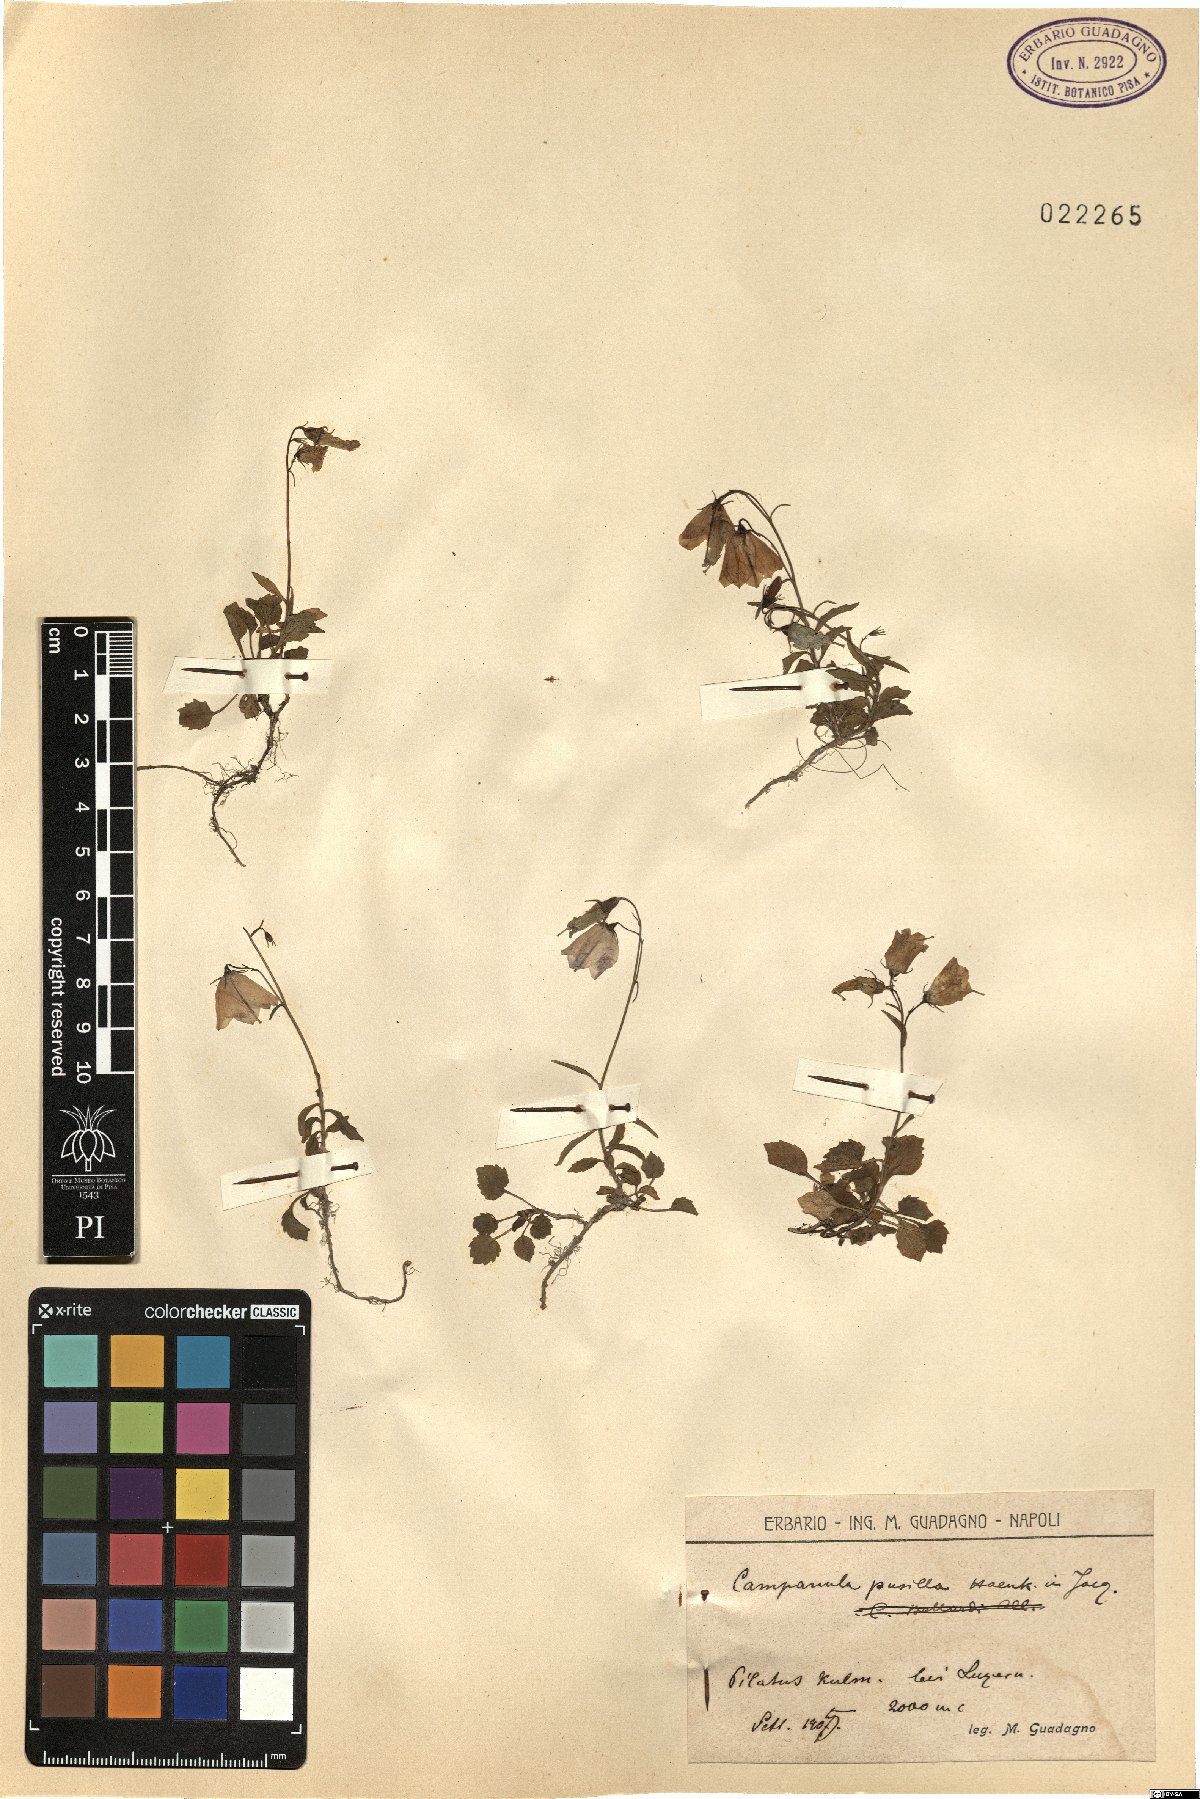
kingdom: Plantae
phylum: Tracheophyta
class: Magnoliopsida
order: Asterales
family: Campanulaceae
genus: Campanula
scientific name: Campanula cochleariifolia
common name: Fairies'-thimbles
